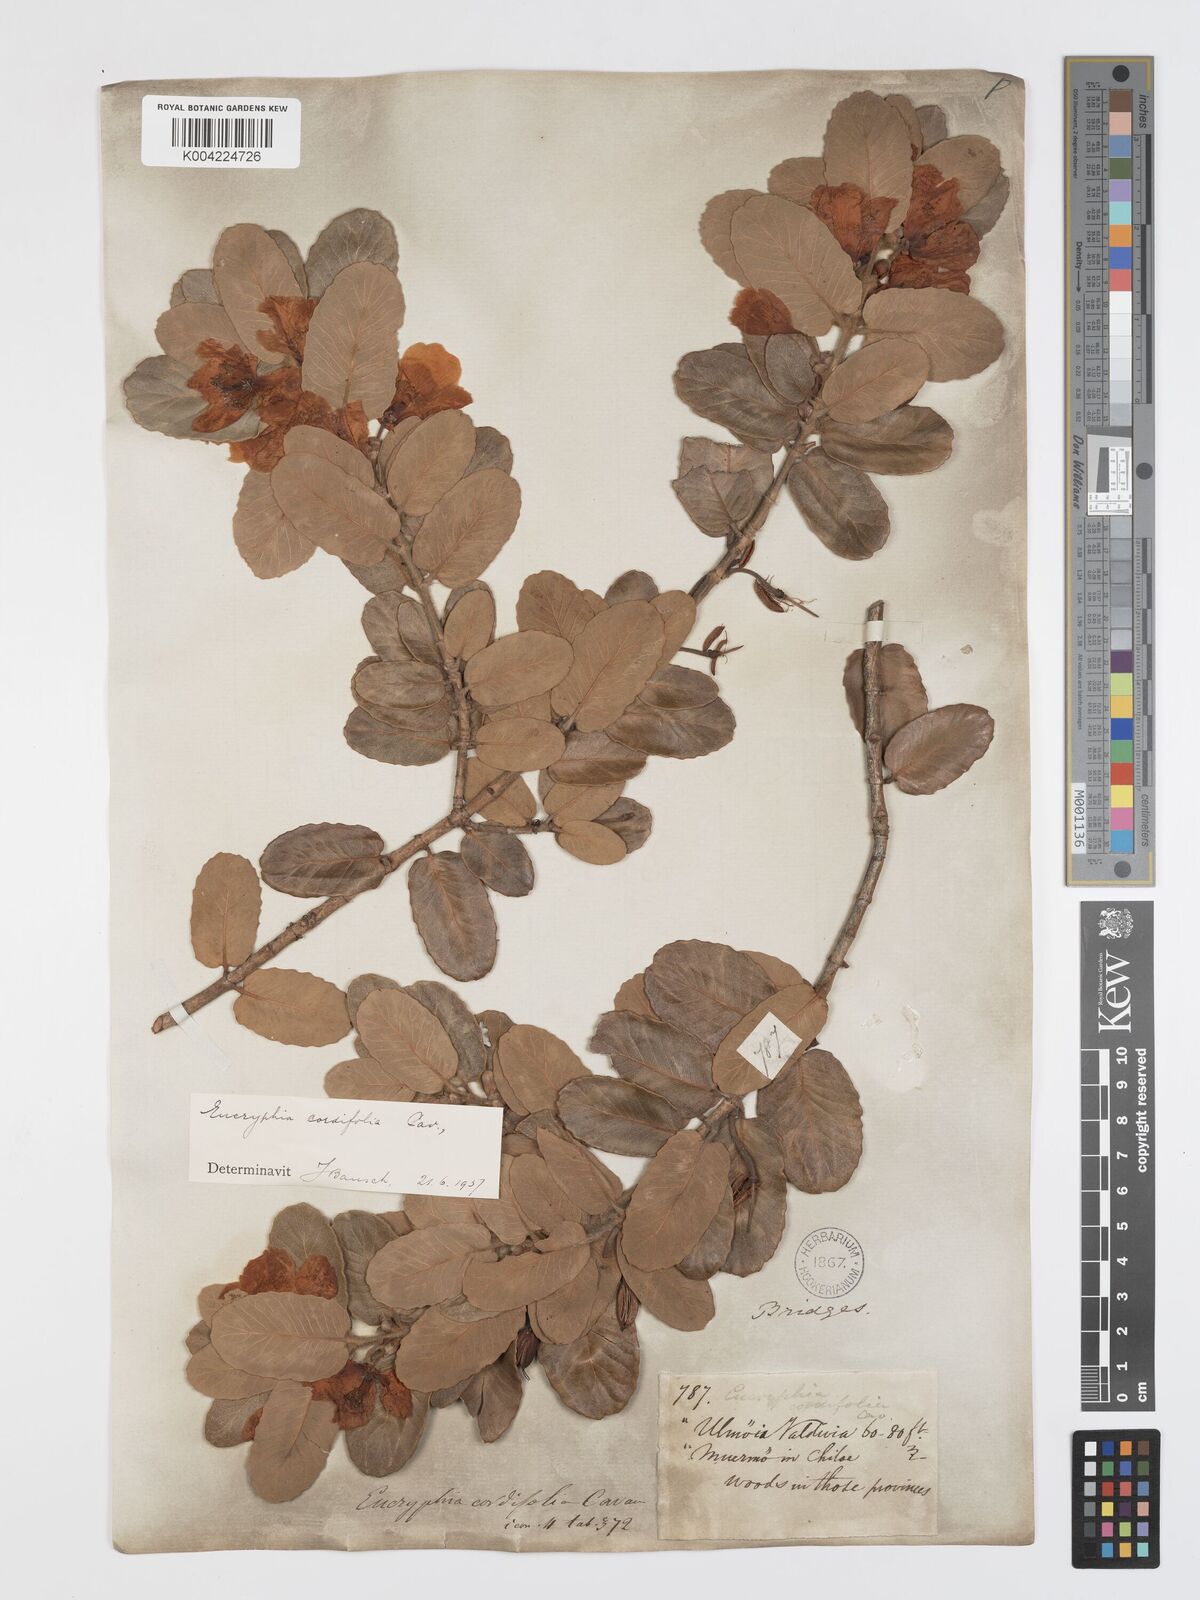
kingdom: Plantae
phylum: Tracheophyta
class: Magnoliopsida
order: Oxalidales
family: Cunoniaceae
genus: Eucryphia
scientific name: Eucryphia cordifolia
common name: Ulmo
